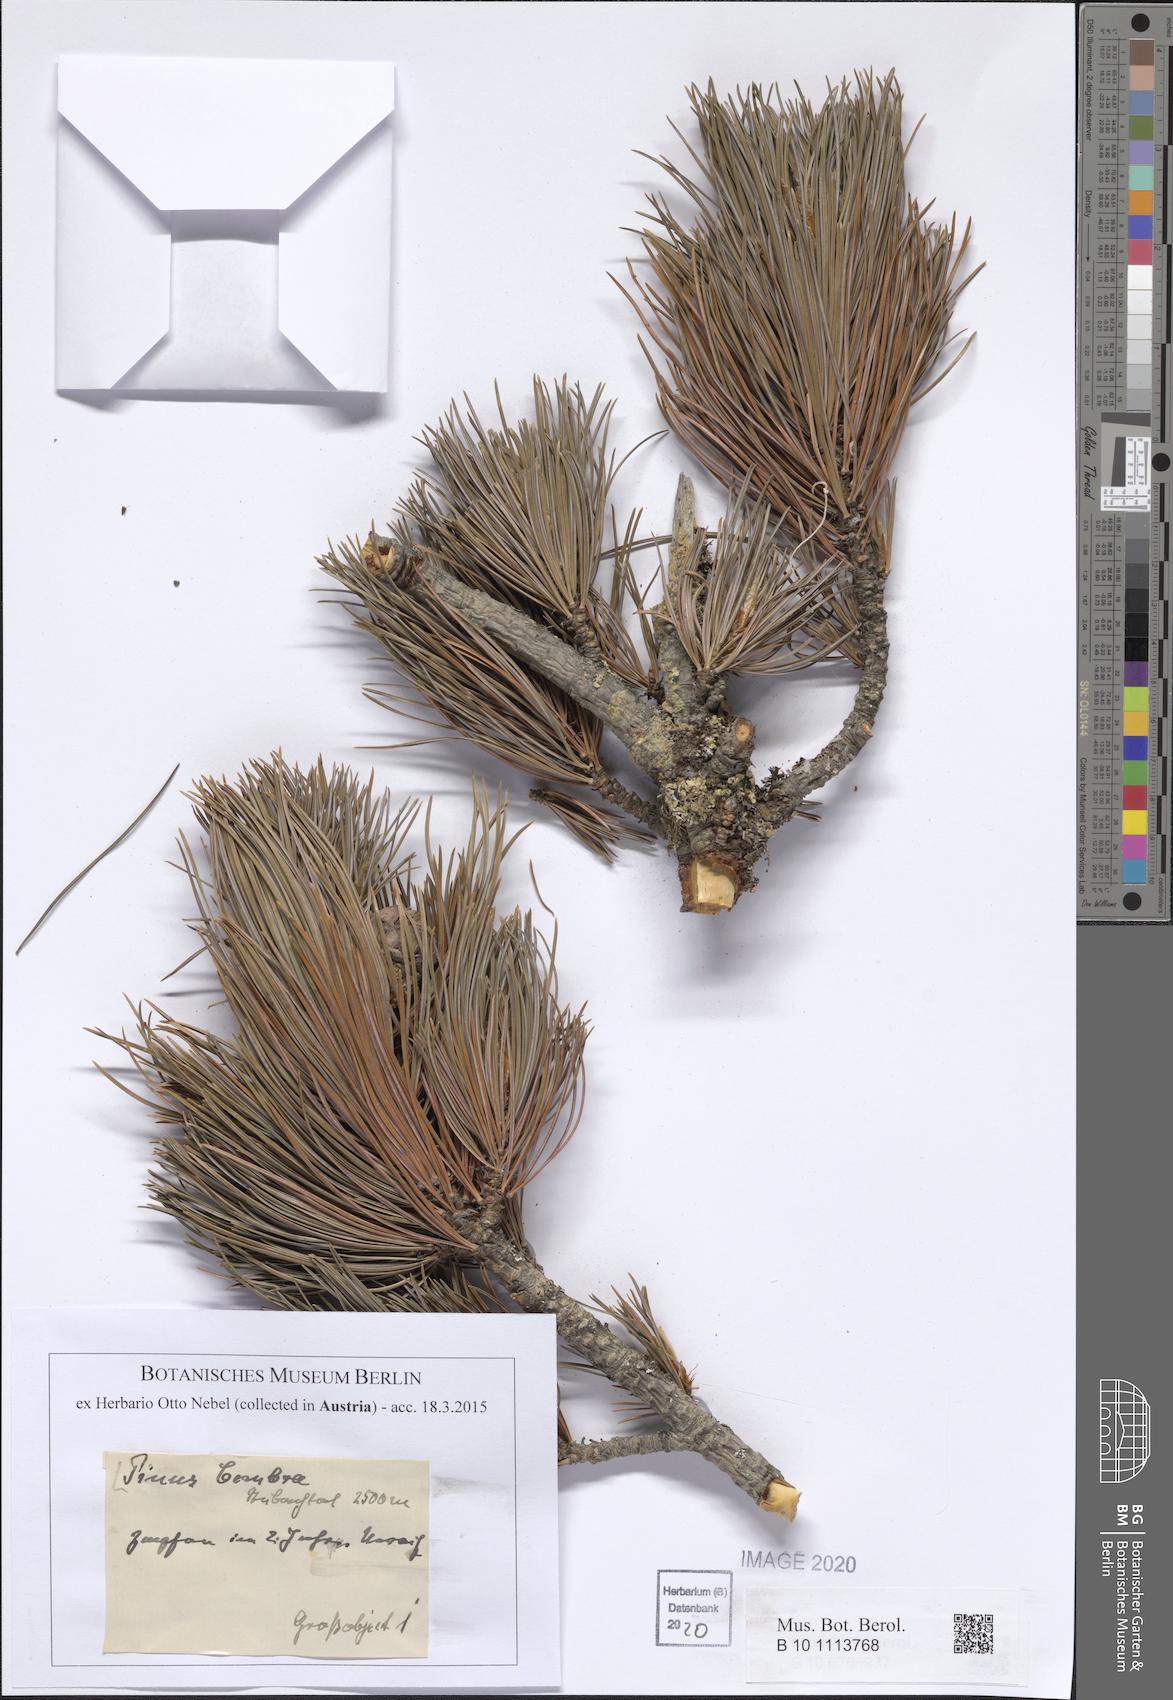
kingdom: Plantae
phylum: Tracheophyta
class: Pinopsida
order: Pinales
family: Pinaceae
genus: Pinus
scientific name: Pinus cembra
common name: Arolla pine
